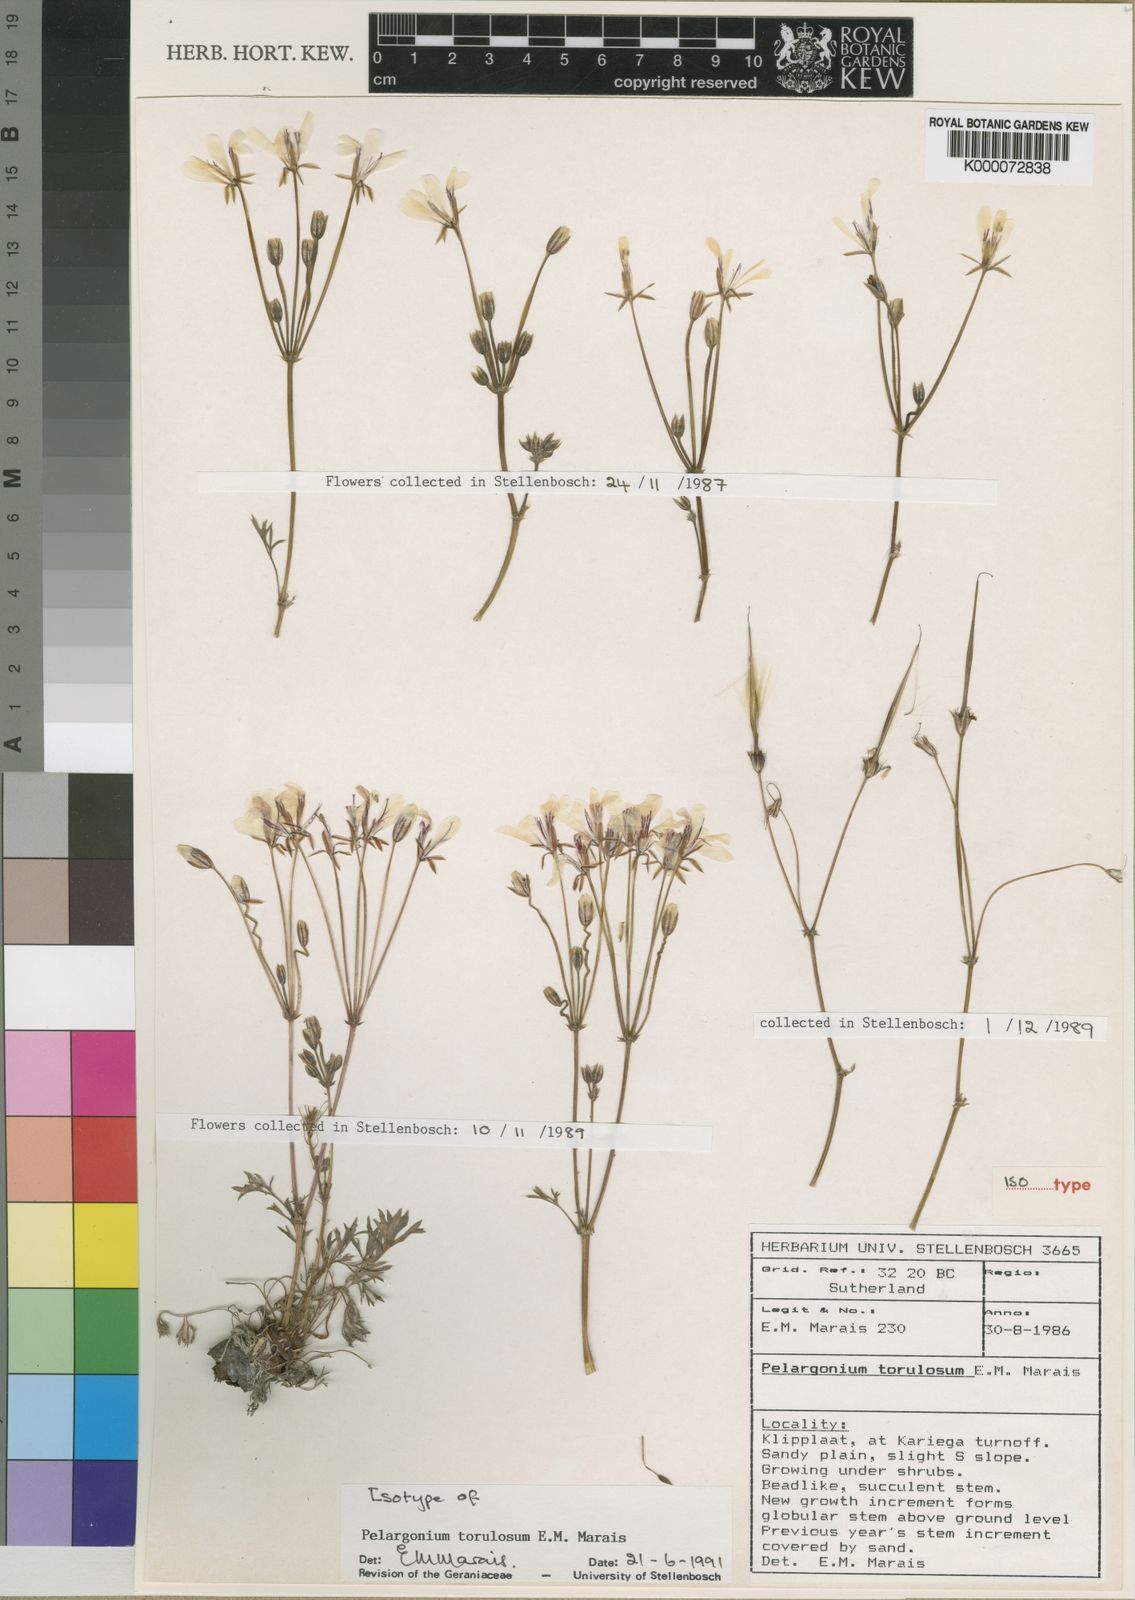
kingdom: Plantae
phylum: Tracheophyta
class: Magnoliopsida
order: Geraniales
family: Geraniaceae
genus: Pelargonium
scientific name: Pelargonium torulosum
